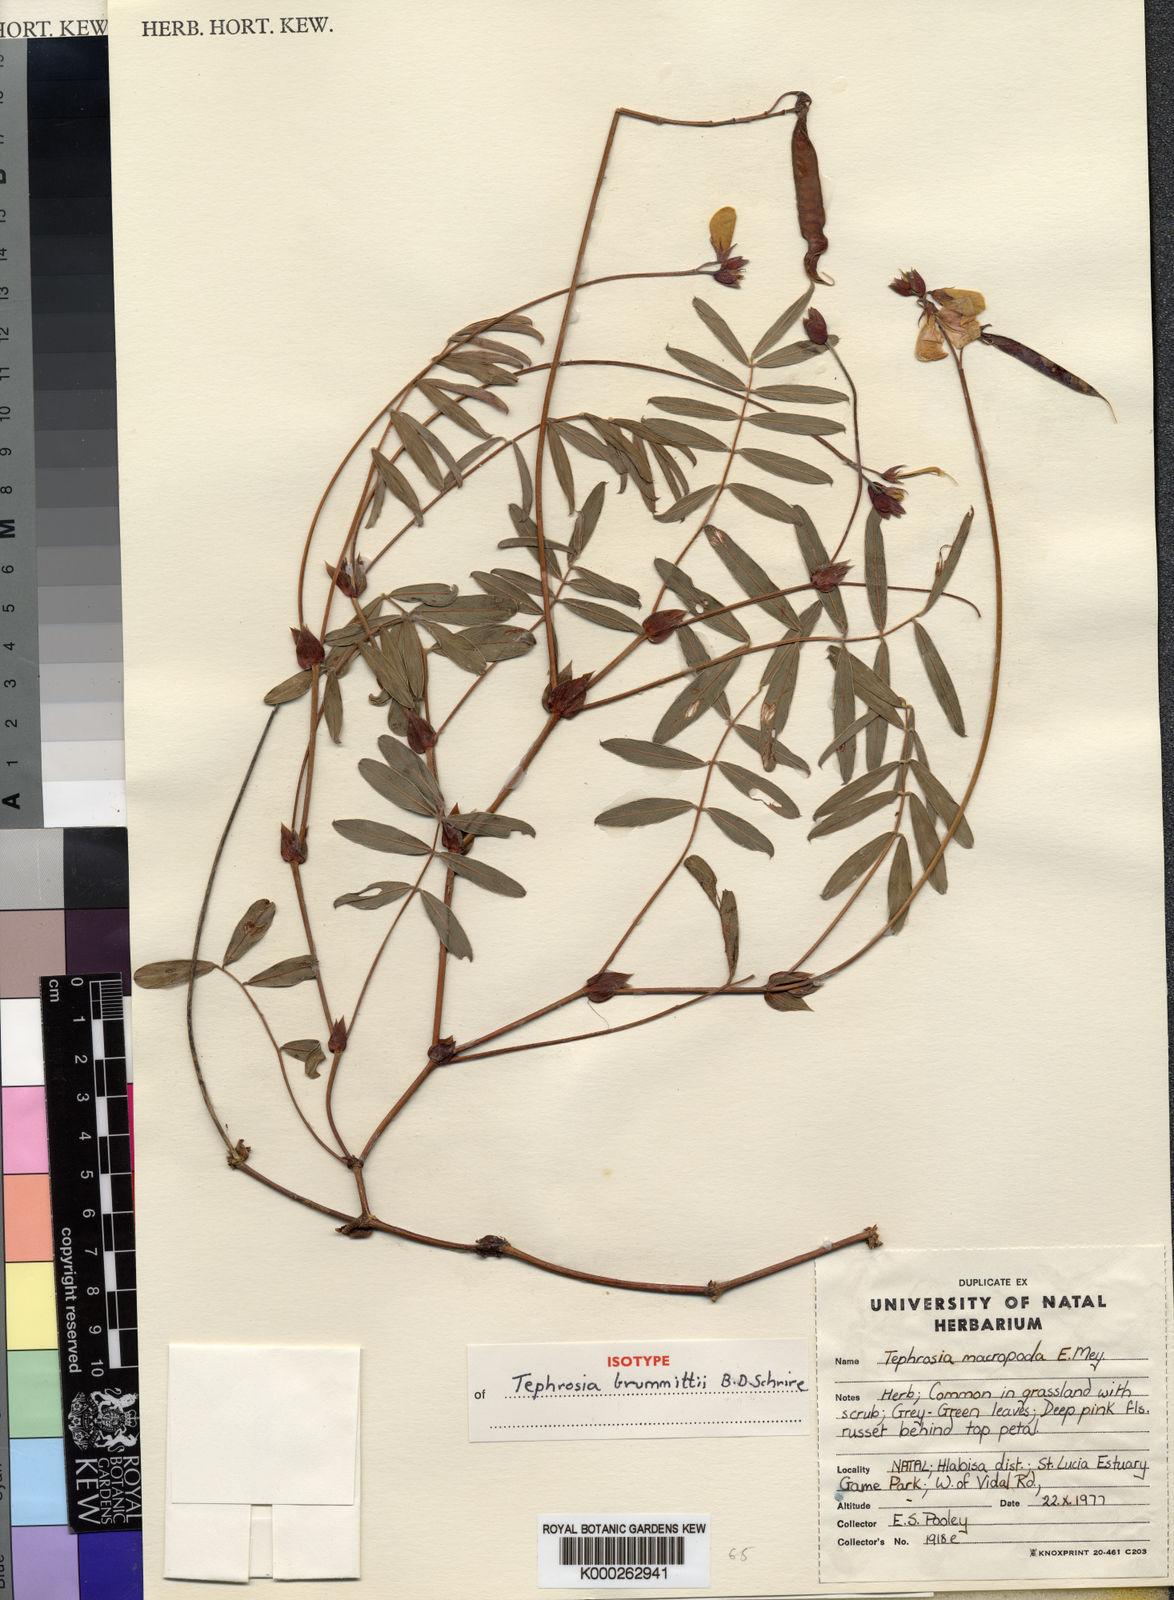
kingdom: Plantae
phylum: Tracheophyta
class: Magnoliopsida
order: Fabales
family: Fabaceae
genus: Tephrosia
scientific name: Tephrosia brummittii
